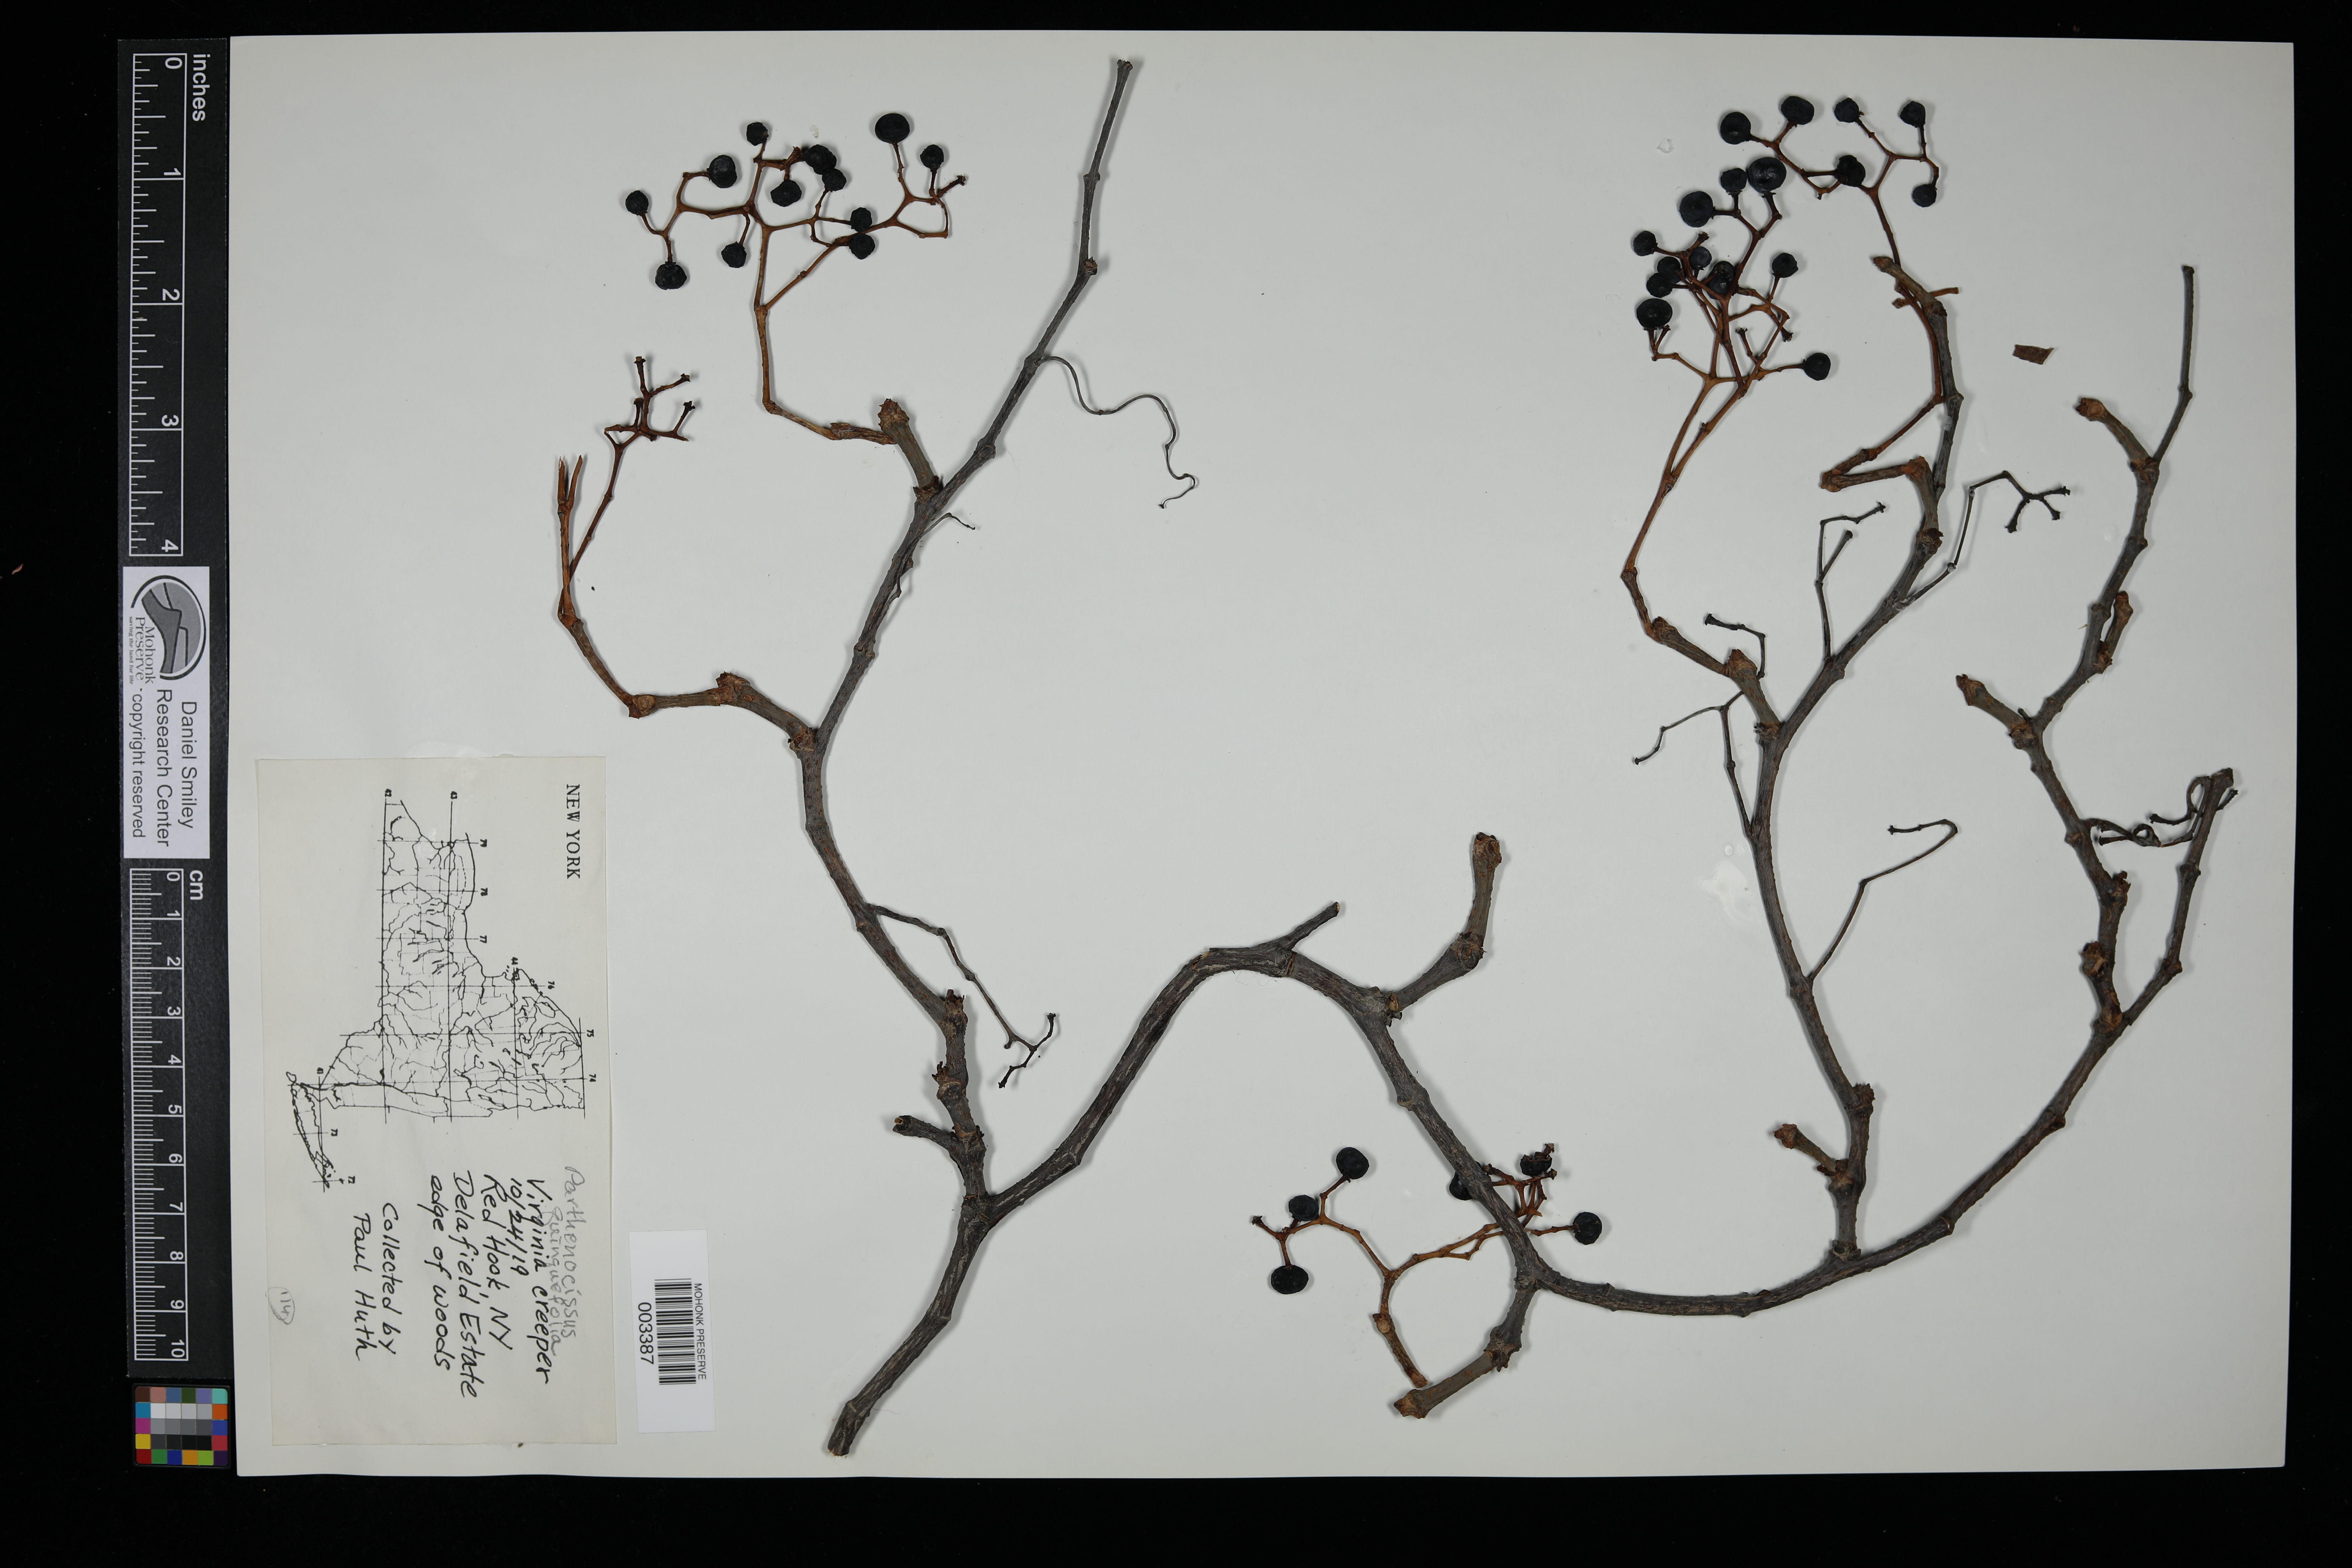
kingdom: Plantae
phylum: Tracheophyta
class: Magnoliopsida
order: Vitales
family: Vitaceae
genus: Parthenocissus
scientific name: Parthenocissus quinquefolia
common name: Virginia-creeper
